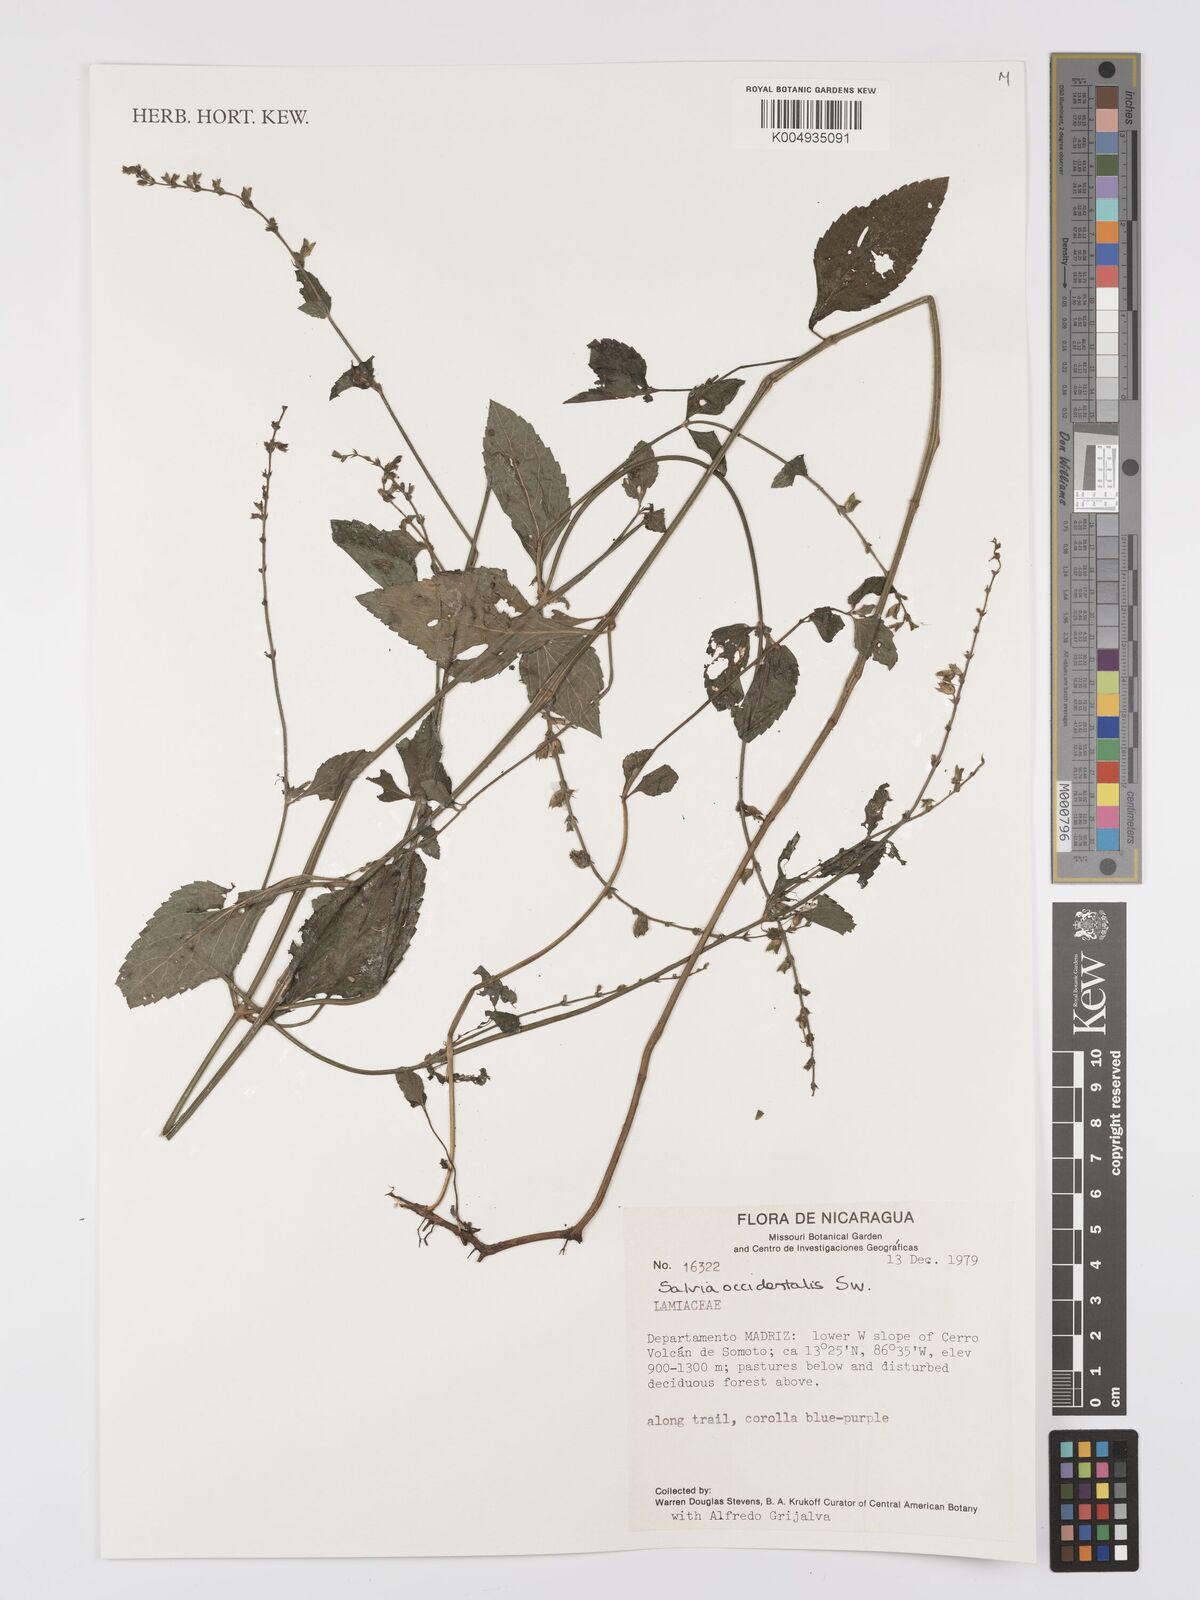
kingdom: Plantae
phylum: Tracheophyta
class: Magnoliopsida
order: Lamiales
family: Lamiaceae
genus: Salvia
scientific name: Salvia occidentalis
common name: West indian sage
